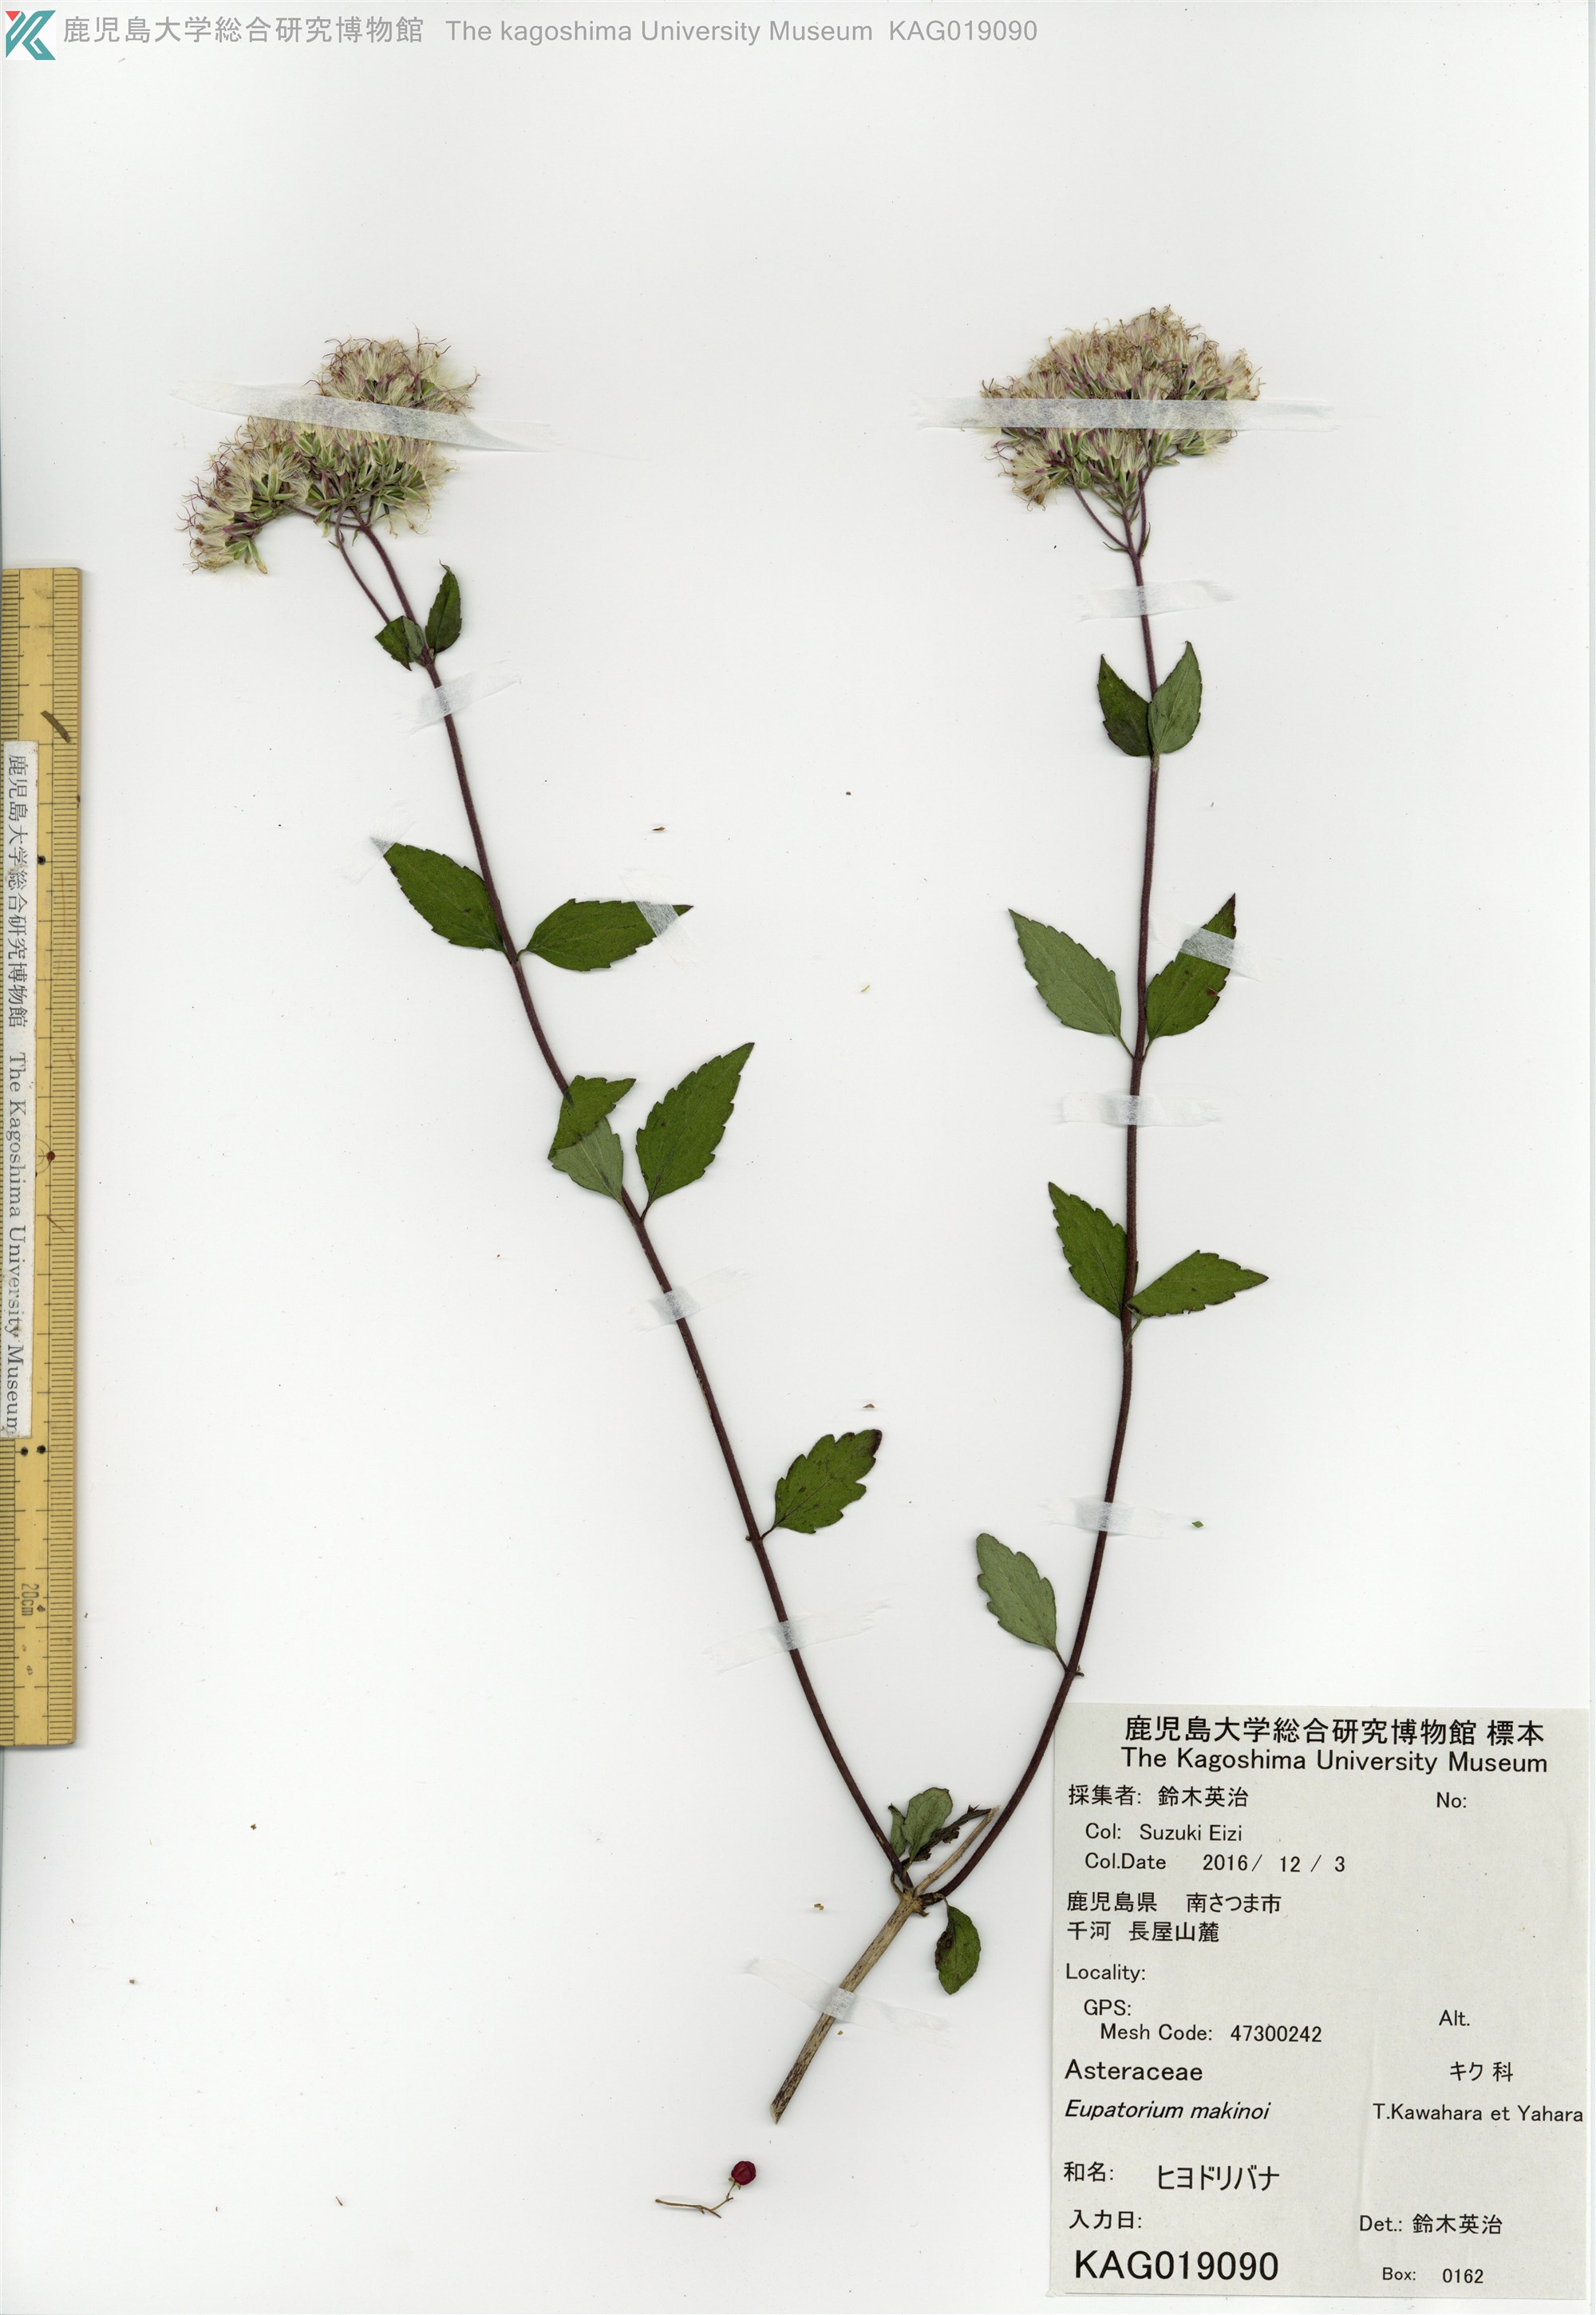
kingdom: Plantae
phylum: Tracheophyta
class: Magnoliopsida
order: Asterales
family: Asteraceae
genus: Eupatorium
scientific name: Eupatorium chinense
